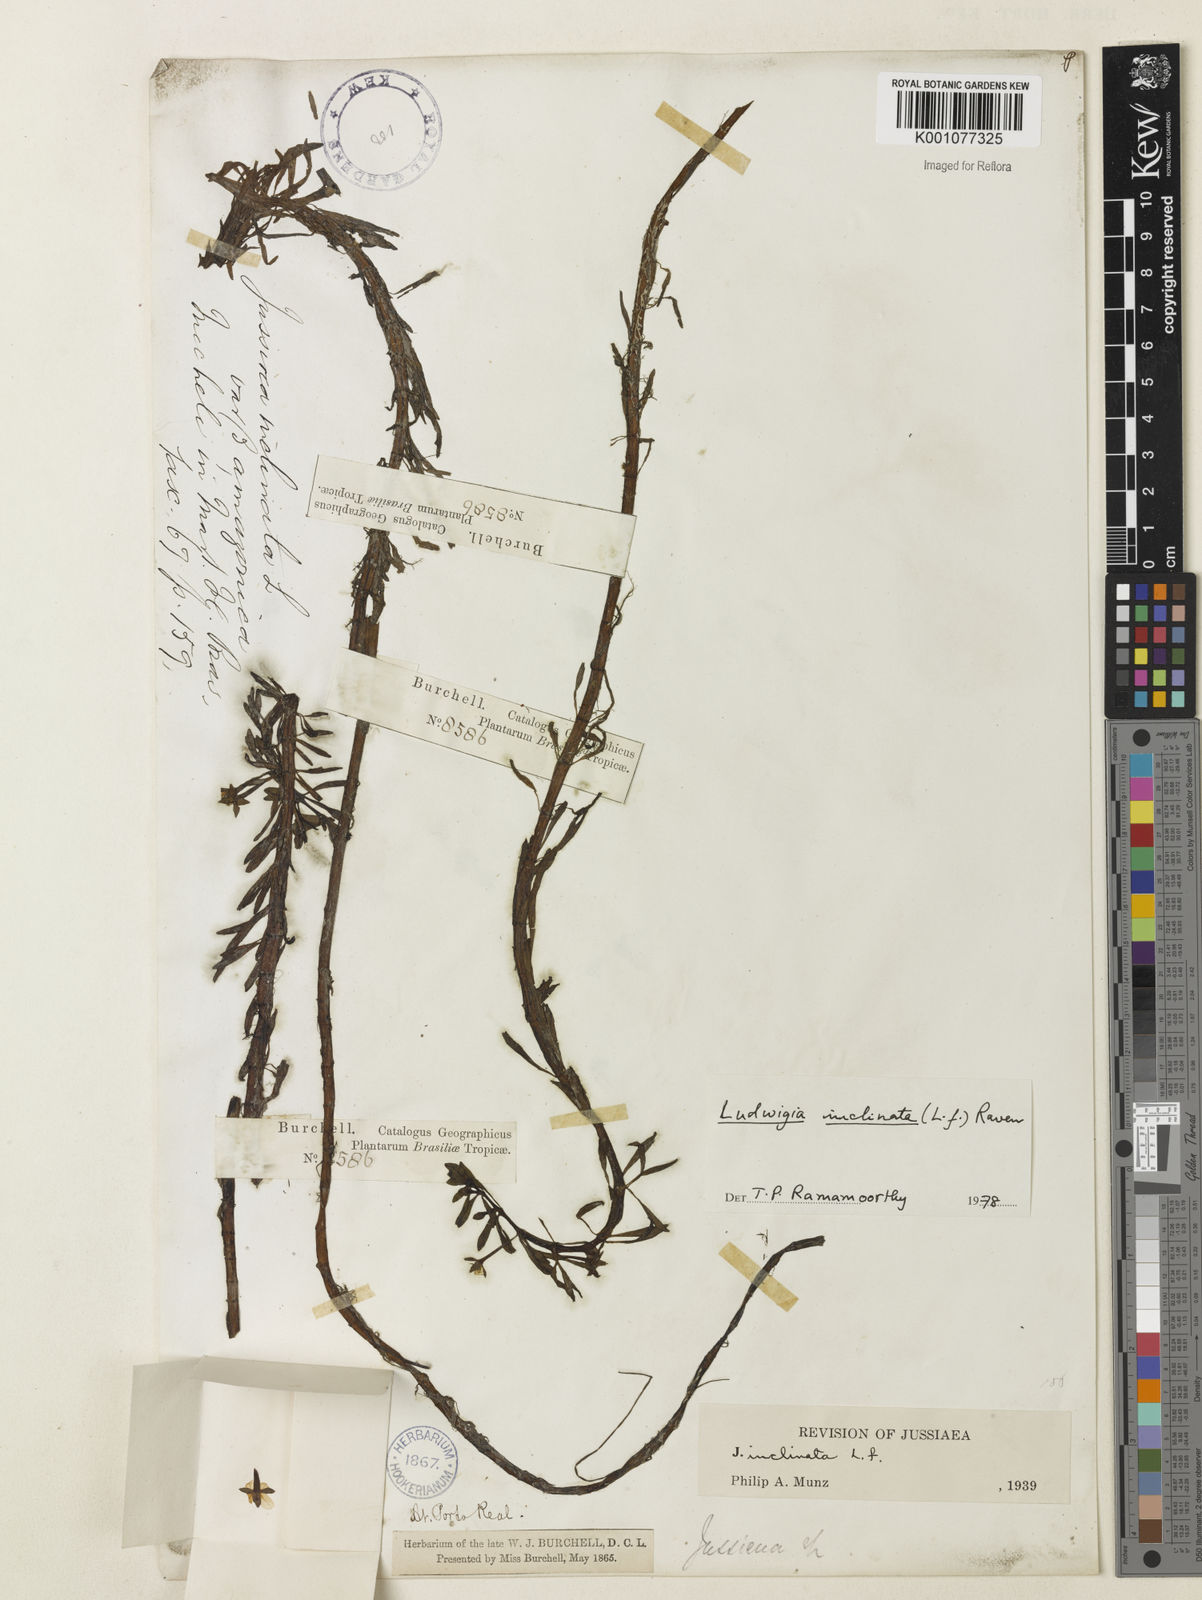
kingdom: Plantae
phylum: Tracheophyta
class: Magnoliopsida
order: Myrtales
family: Onagraceae
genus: Ludwigia
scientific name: Ludwigia potamogeton
